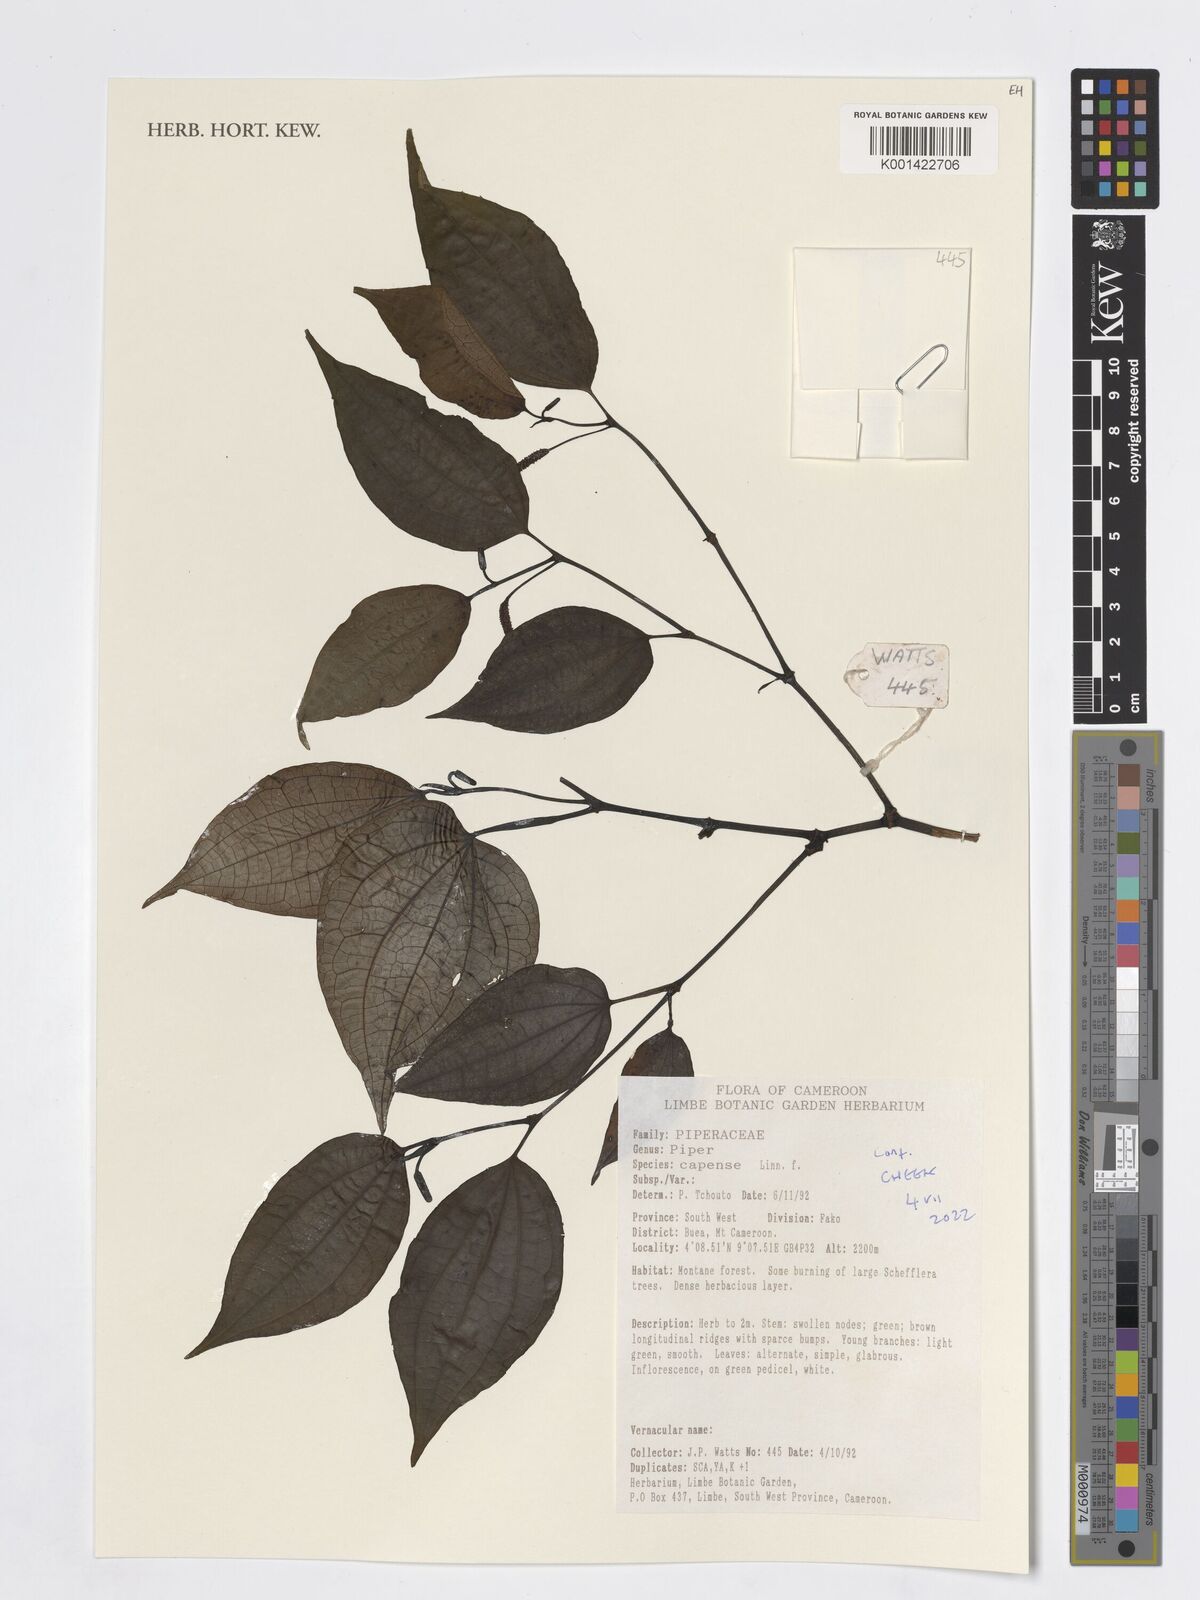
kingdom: Plantae
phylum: Tracheophyta
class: Magnoliopsida
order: Piperales
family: Piperaceae
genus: Piper
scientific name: Piper capense
